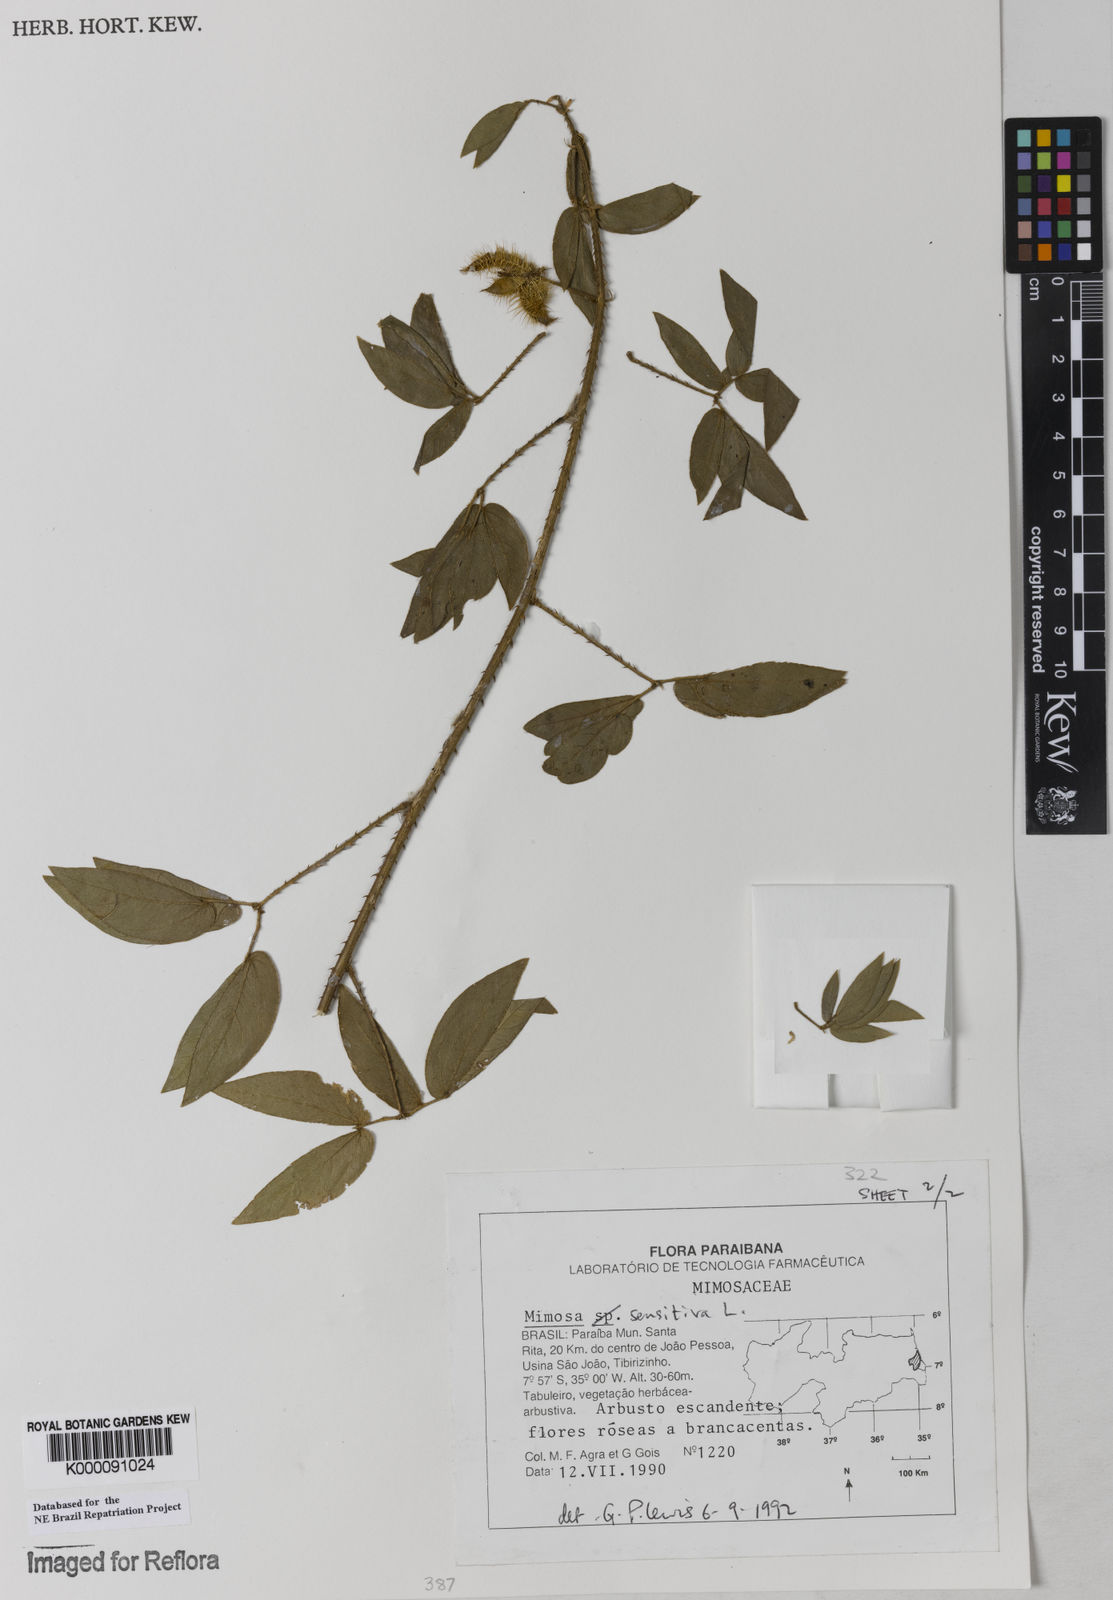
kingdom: Plantae
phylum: Tracheophyta
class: Magnoliopsida
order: Fabales
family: Fabaceae
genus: Mimosa
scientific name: Mimosa sensitiva
